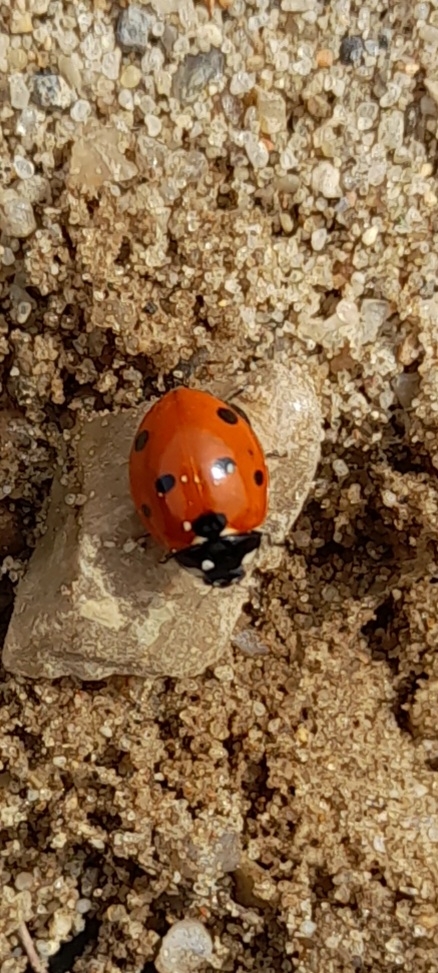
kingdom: Animalia
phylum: Arthropoda
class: Insecta
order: Coleoptera
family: Coccinellidae
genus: Coccinella
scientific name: Coccinella septempunctata
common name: Syvplettet mariehøne
